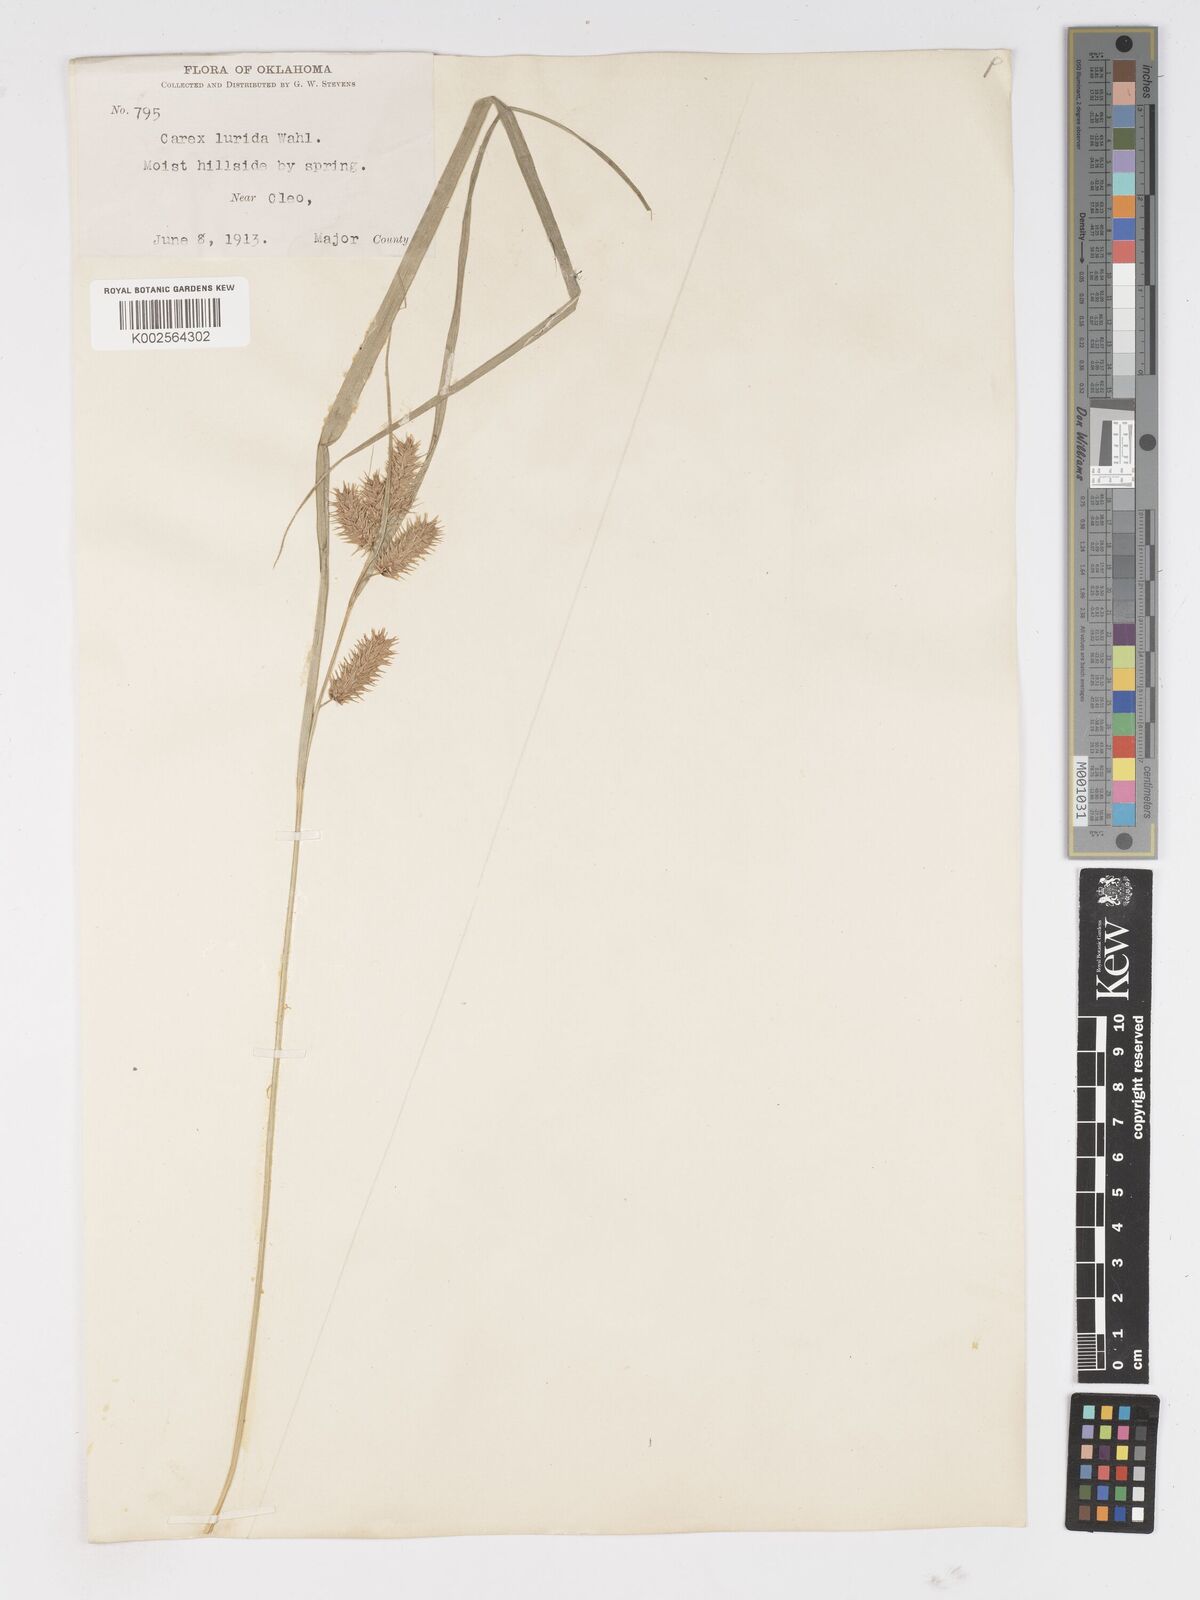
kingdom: Plantae
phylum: Tracheophyta
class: Liliopsida
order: Poales
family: Cyperaceae
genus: Carex
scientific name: Carex lurida
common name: Sallow sedge
